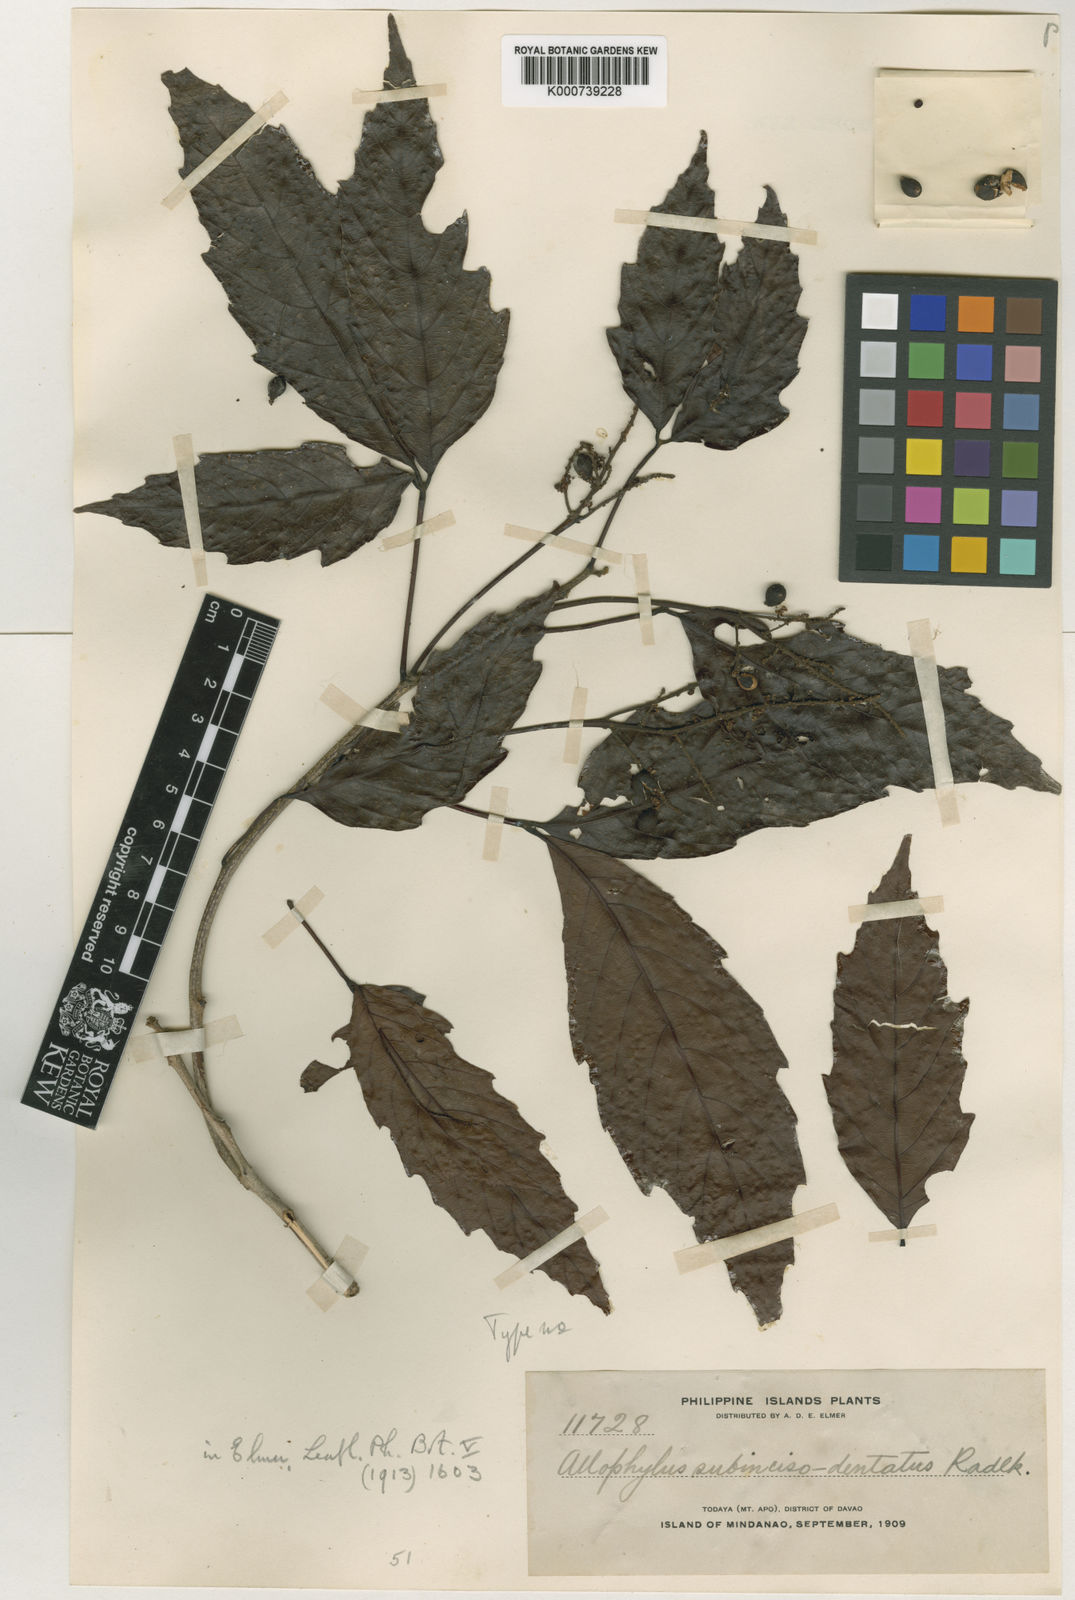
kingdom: Plantae
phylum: Tracheophyta
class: Magnoliopsida
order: Sapindales
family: Sapindaceae
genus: Allophylus
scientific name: Allophylus subincisodentatus
